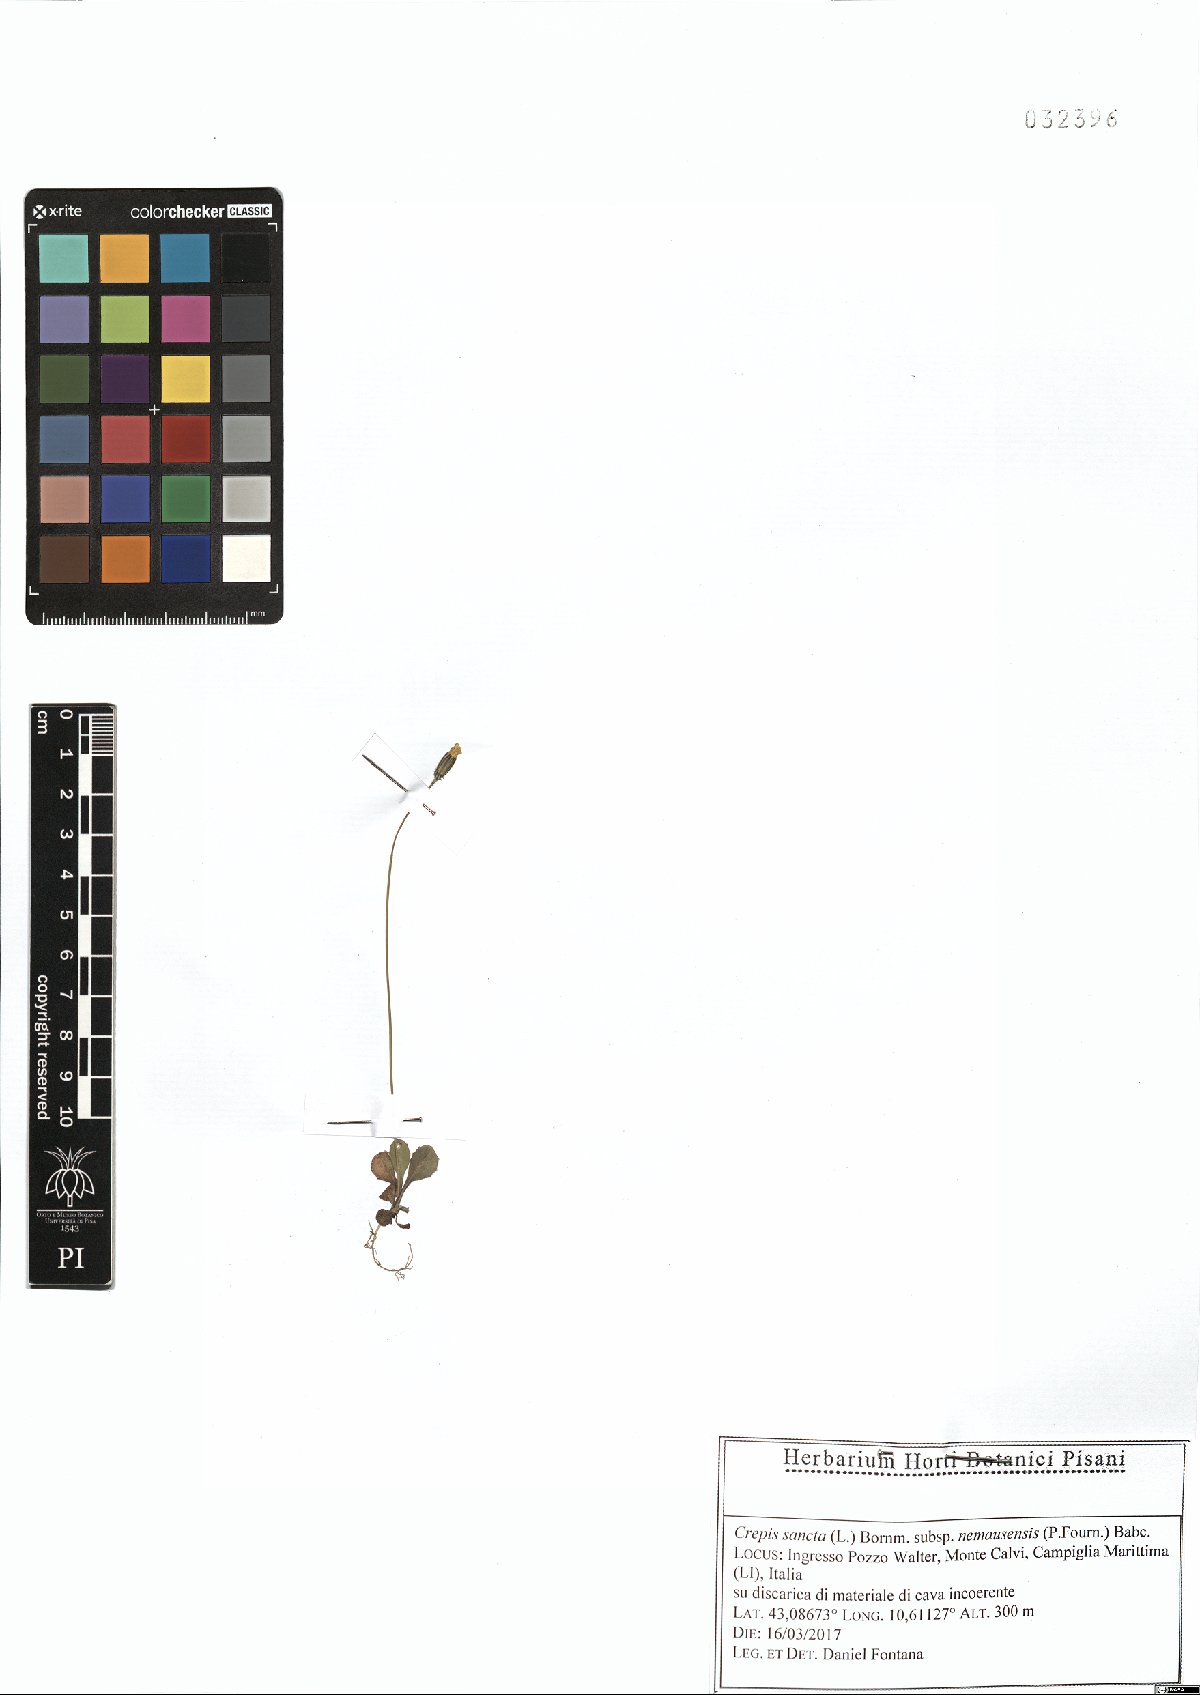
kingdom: Plantae
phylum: Tracheophyta
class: Magnoliopsida
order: Asterales
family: Asteraceae
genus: Crepis
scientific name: Crepis sancta
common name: Hawk's-beard
